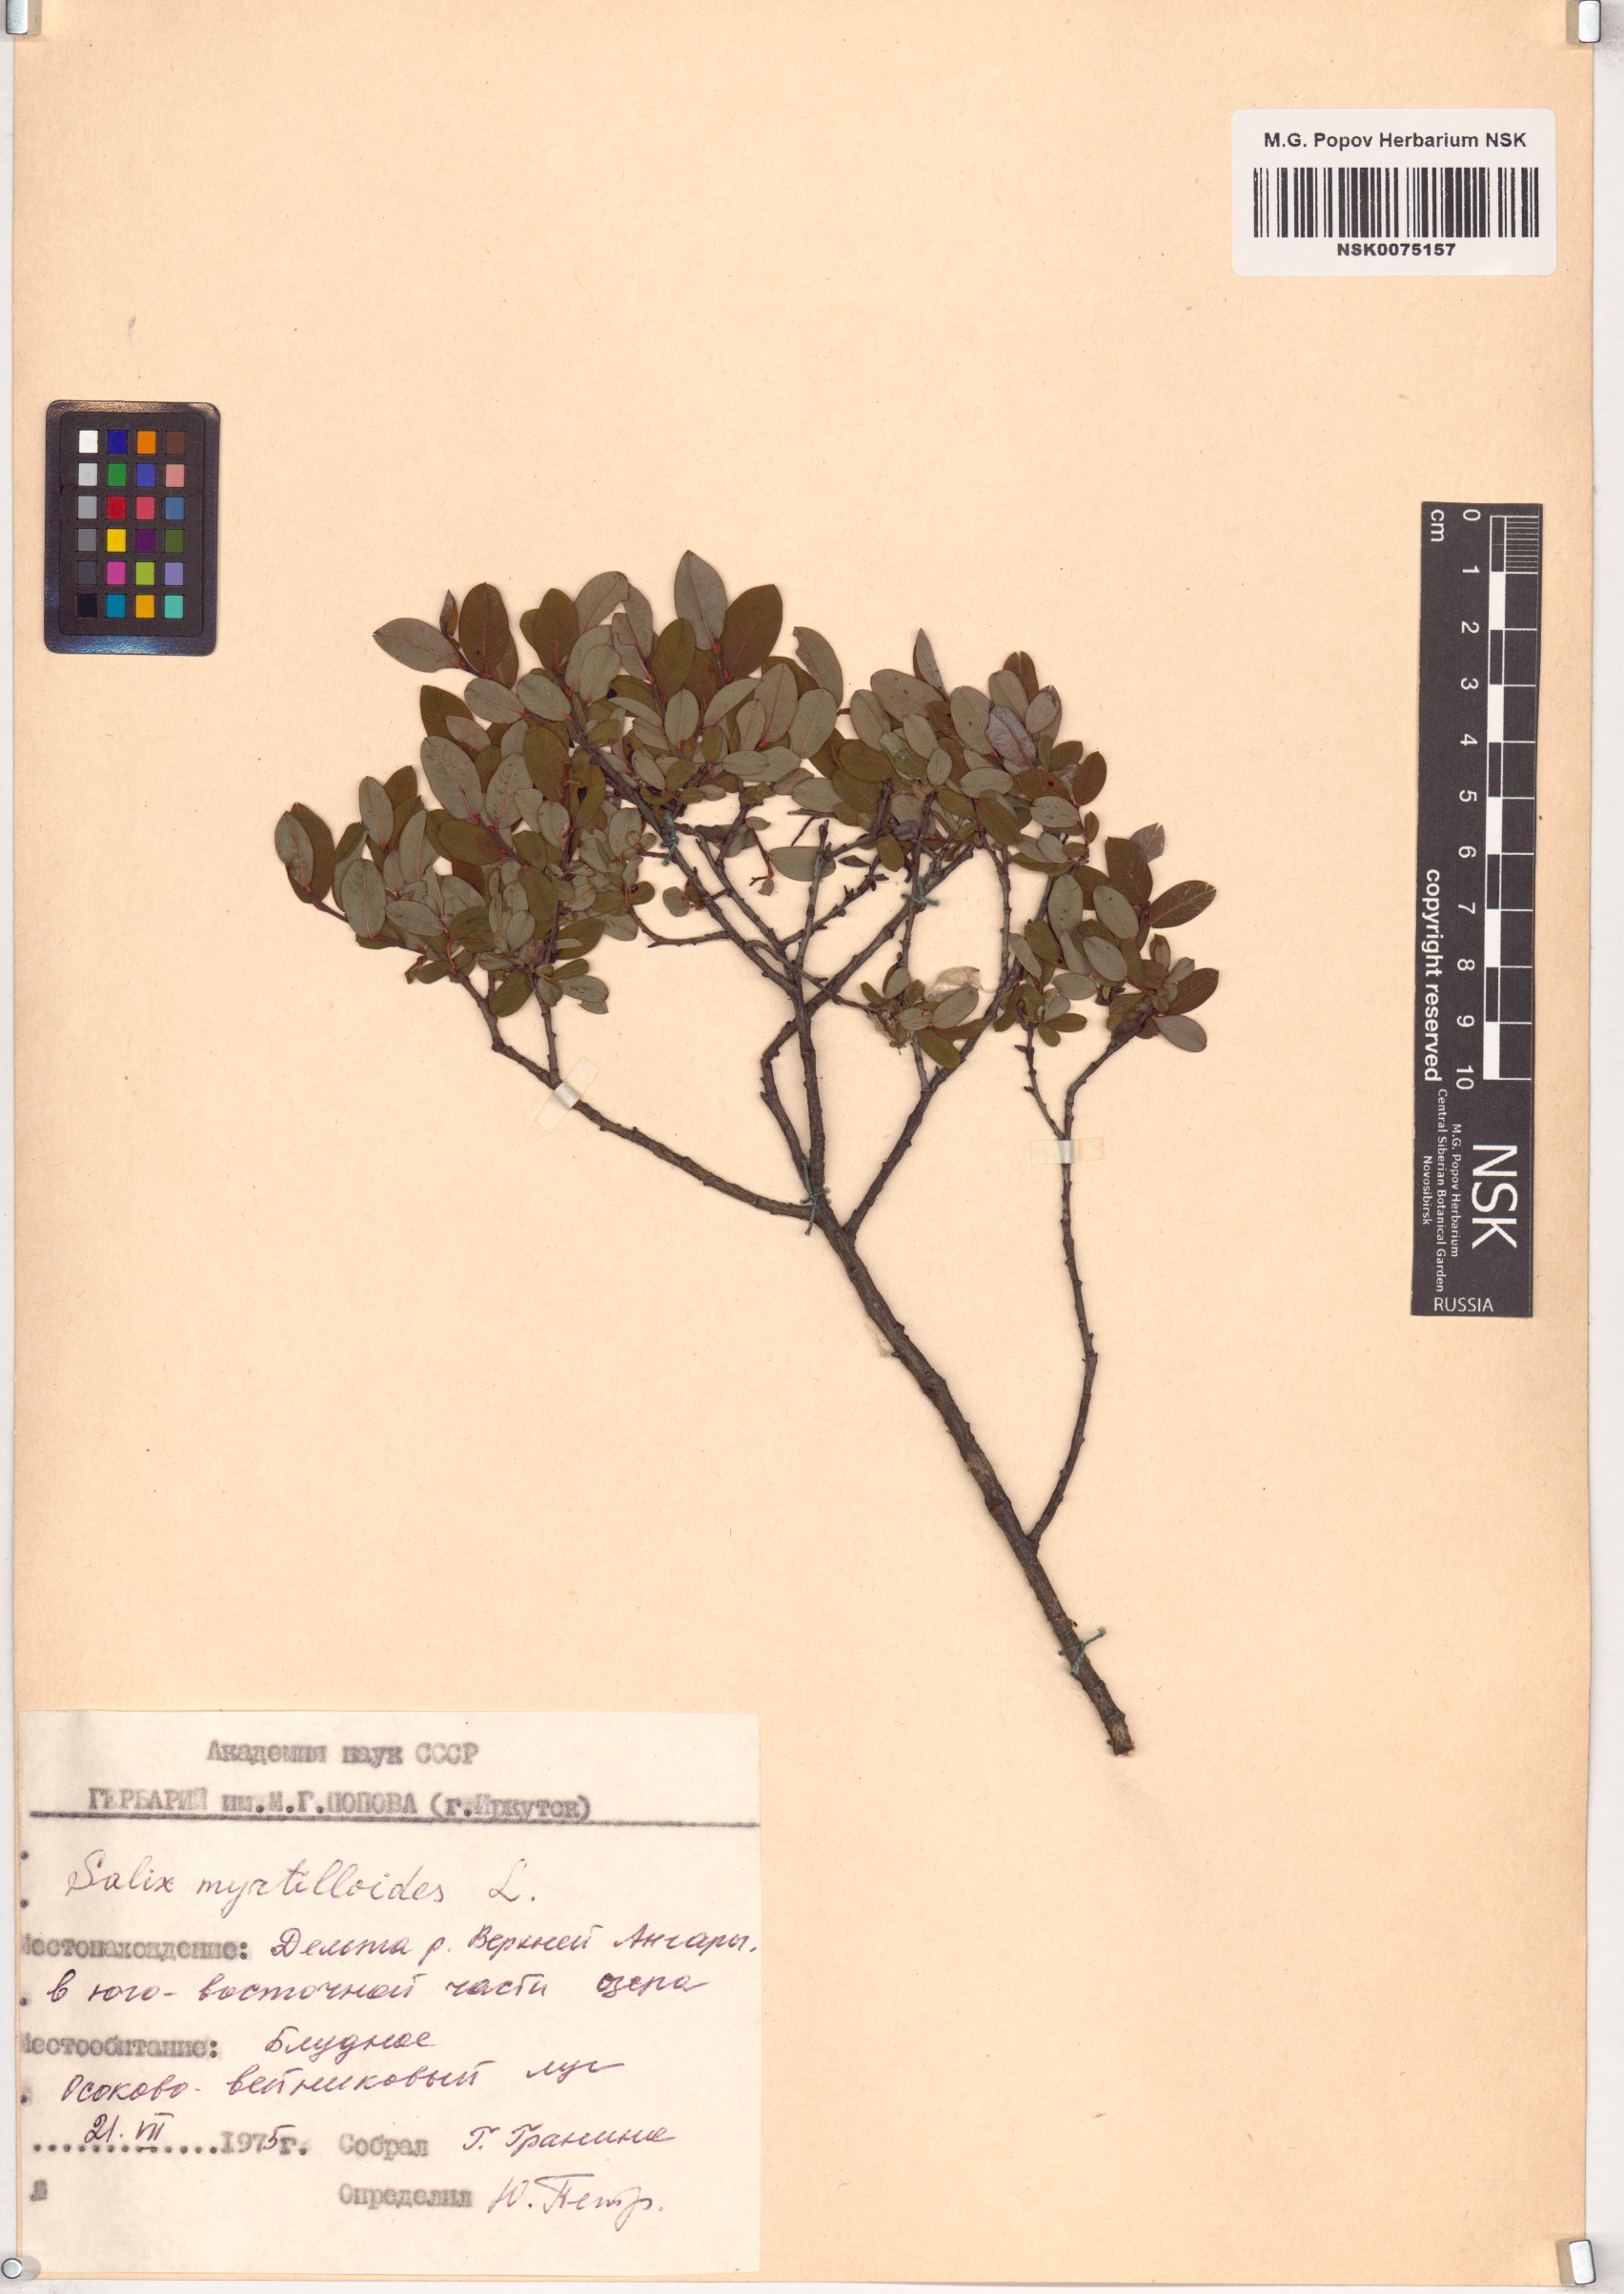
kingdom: Plantae
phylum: Tracheophyta
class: Magnoliopsida
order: Malpighiales
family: Salicaceae
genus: Salix
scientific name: Salix myrtilloides
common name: Myrtle-leaved willow
